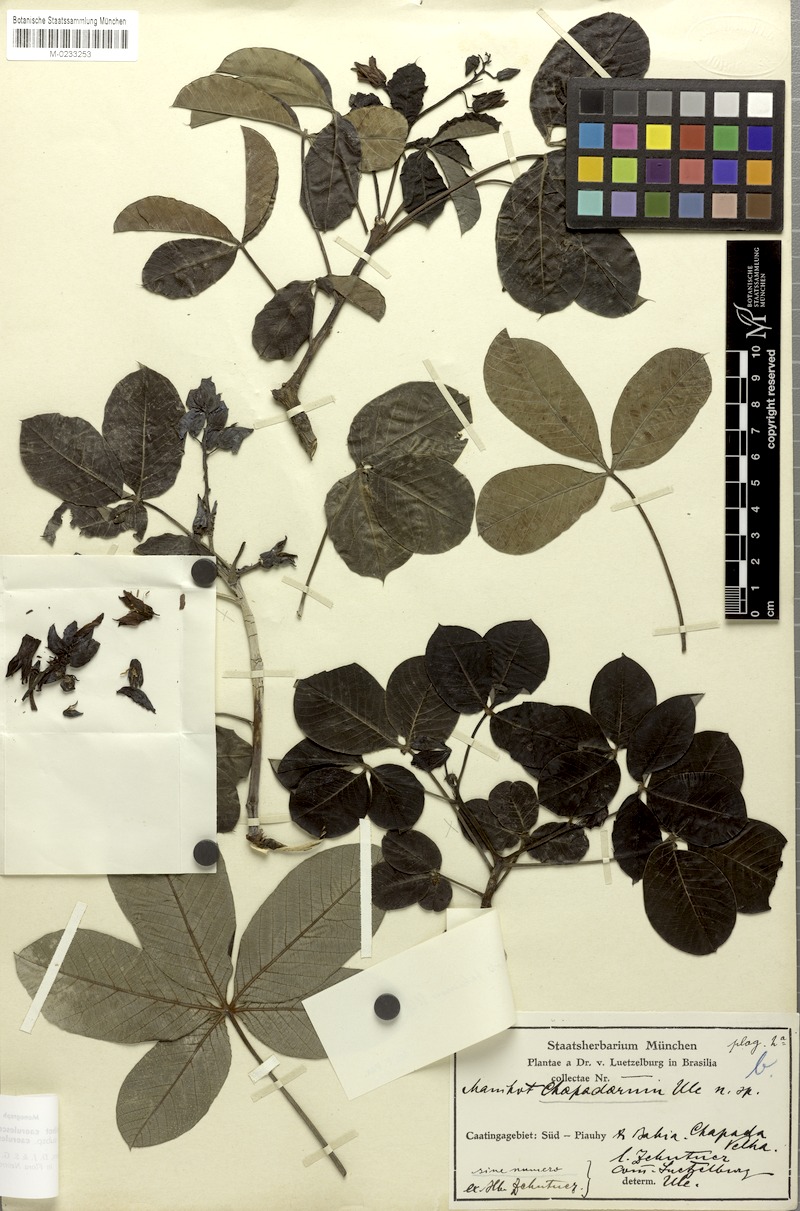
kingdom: Plantae
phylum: Tracheophyta
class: Magnoliopsida
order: Malpighiales
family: Euphorbiaceae
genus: Manihot
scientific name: Manihot caerulescens
